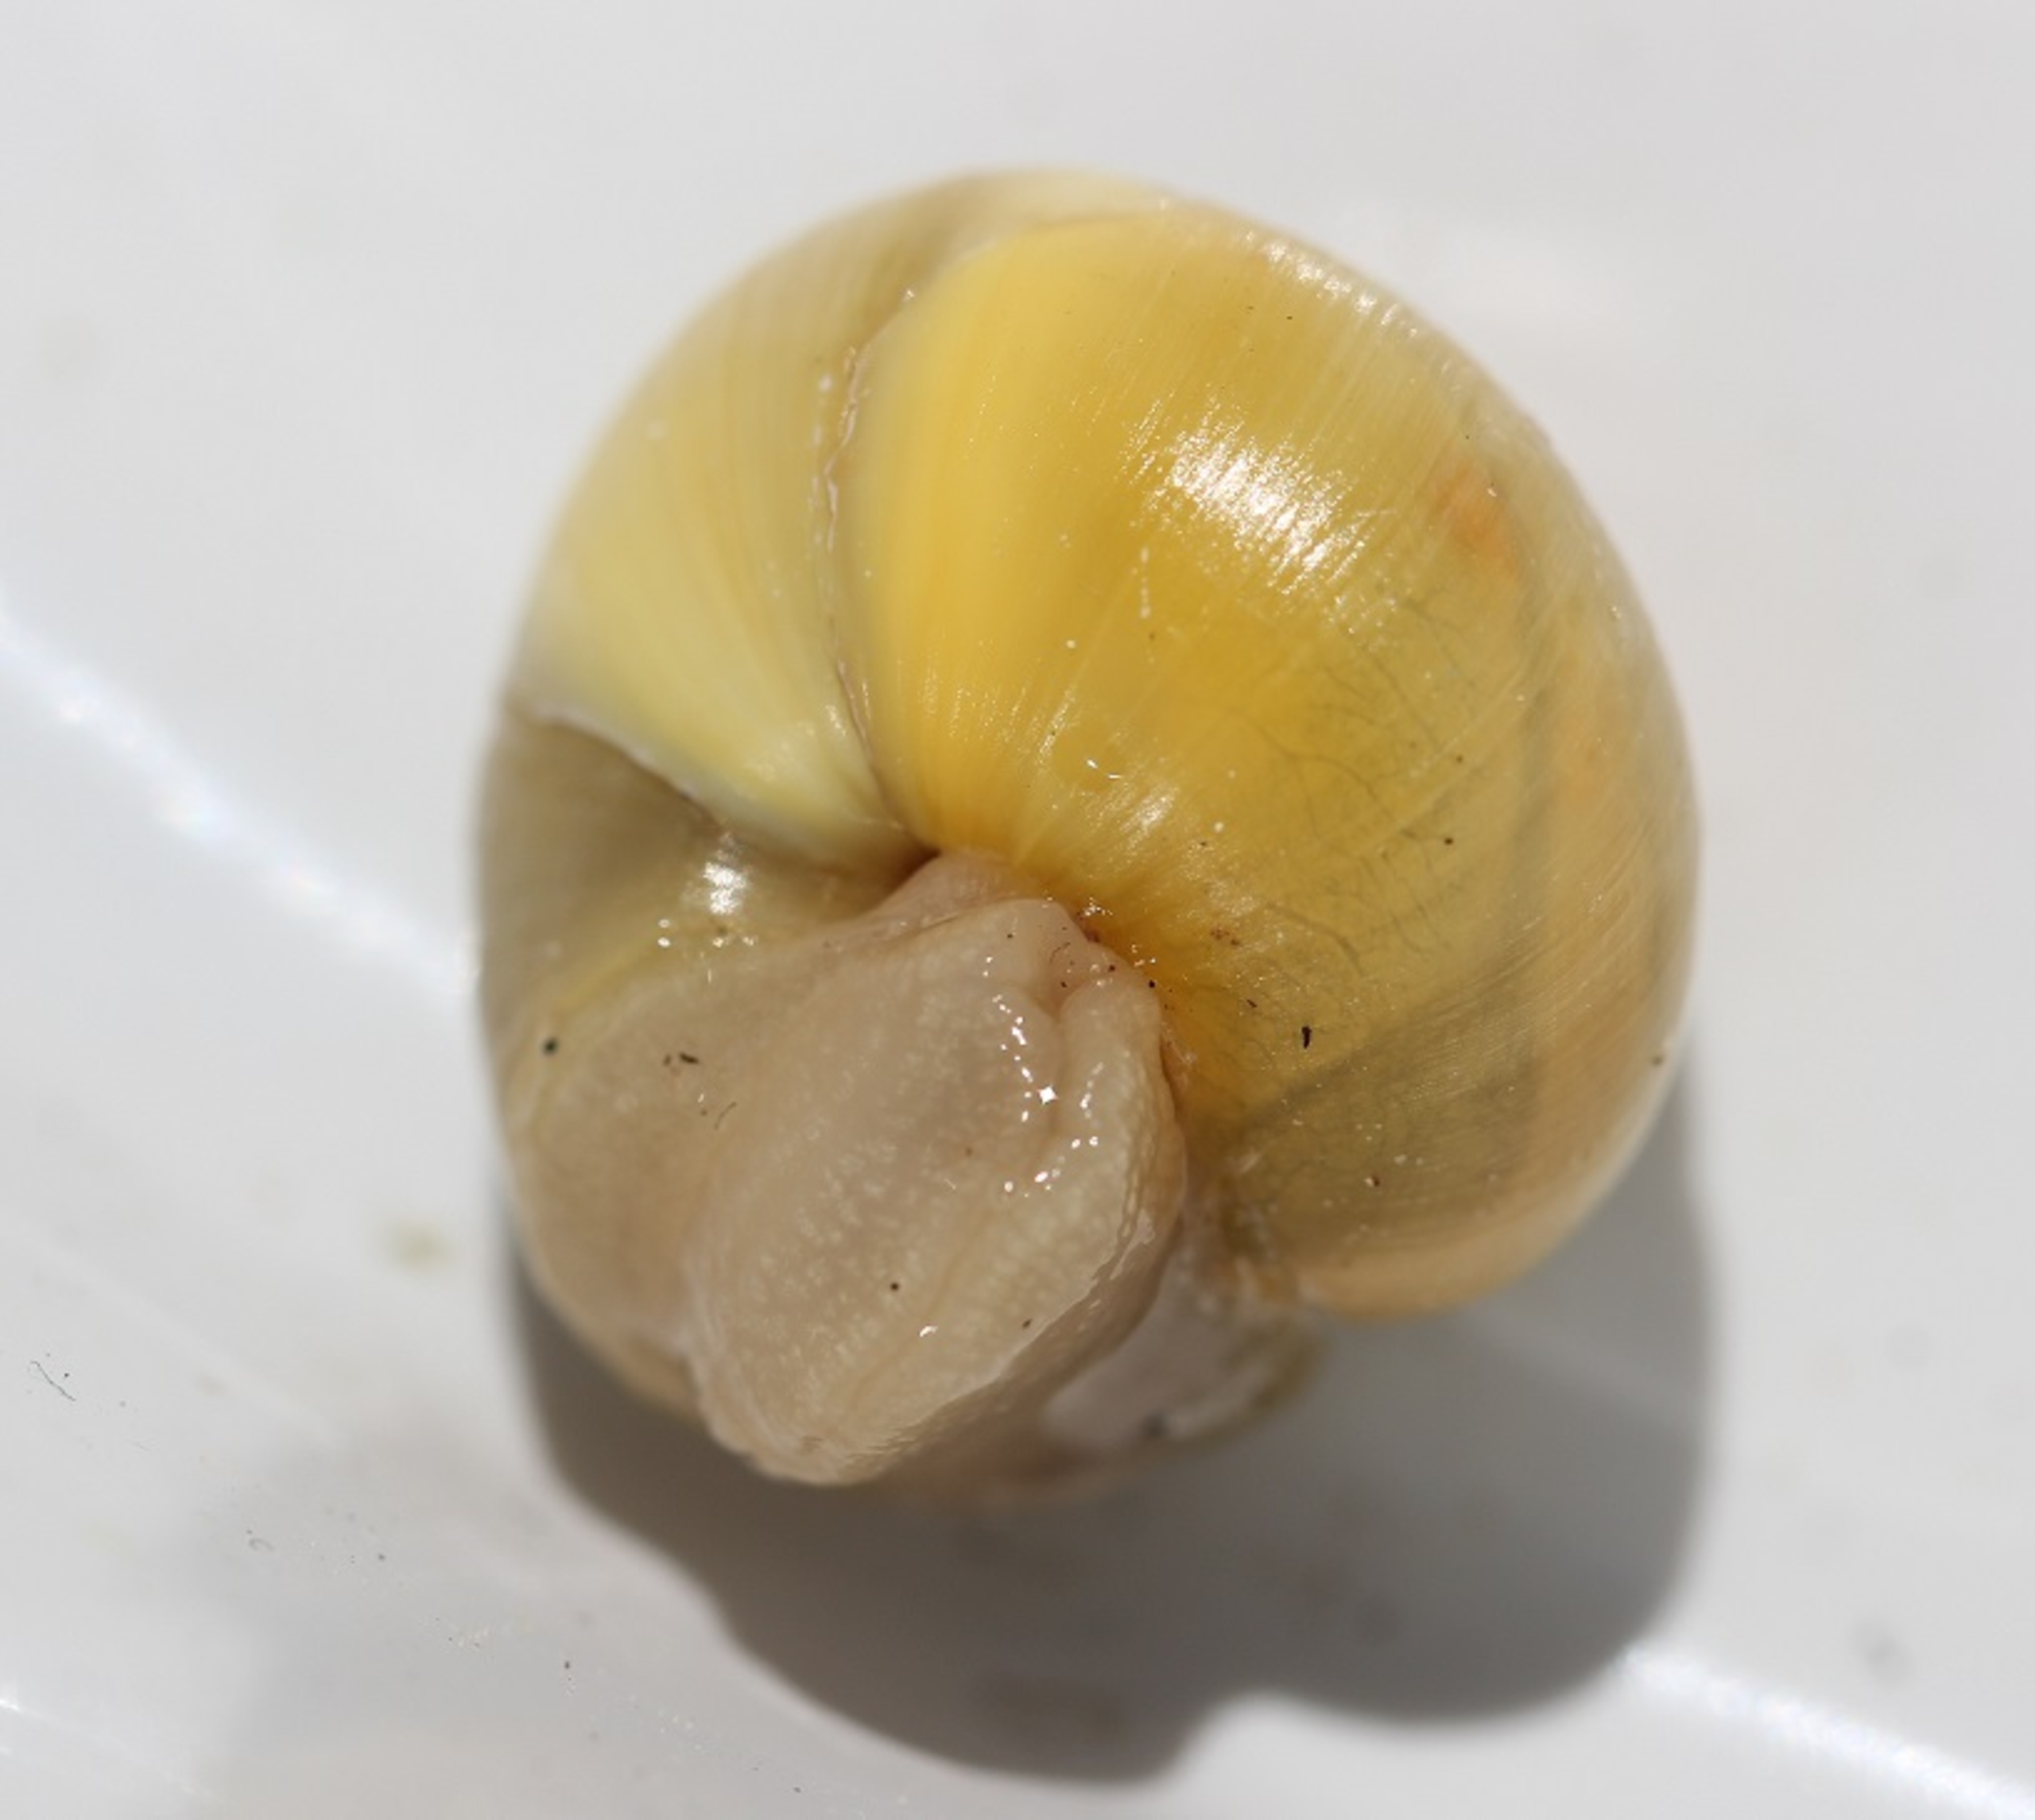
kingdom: Animalia
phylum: Mollusca
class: Gastropoda
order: Stylommatophora
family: Helicidae
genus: Cepaea
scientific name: Cepaea hortensis
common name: Havesnegl
